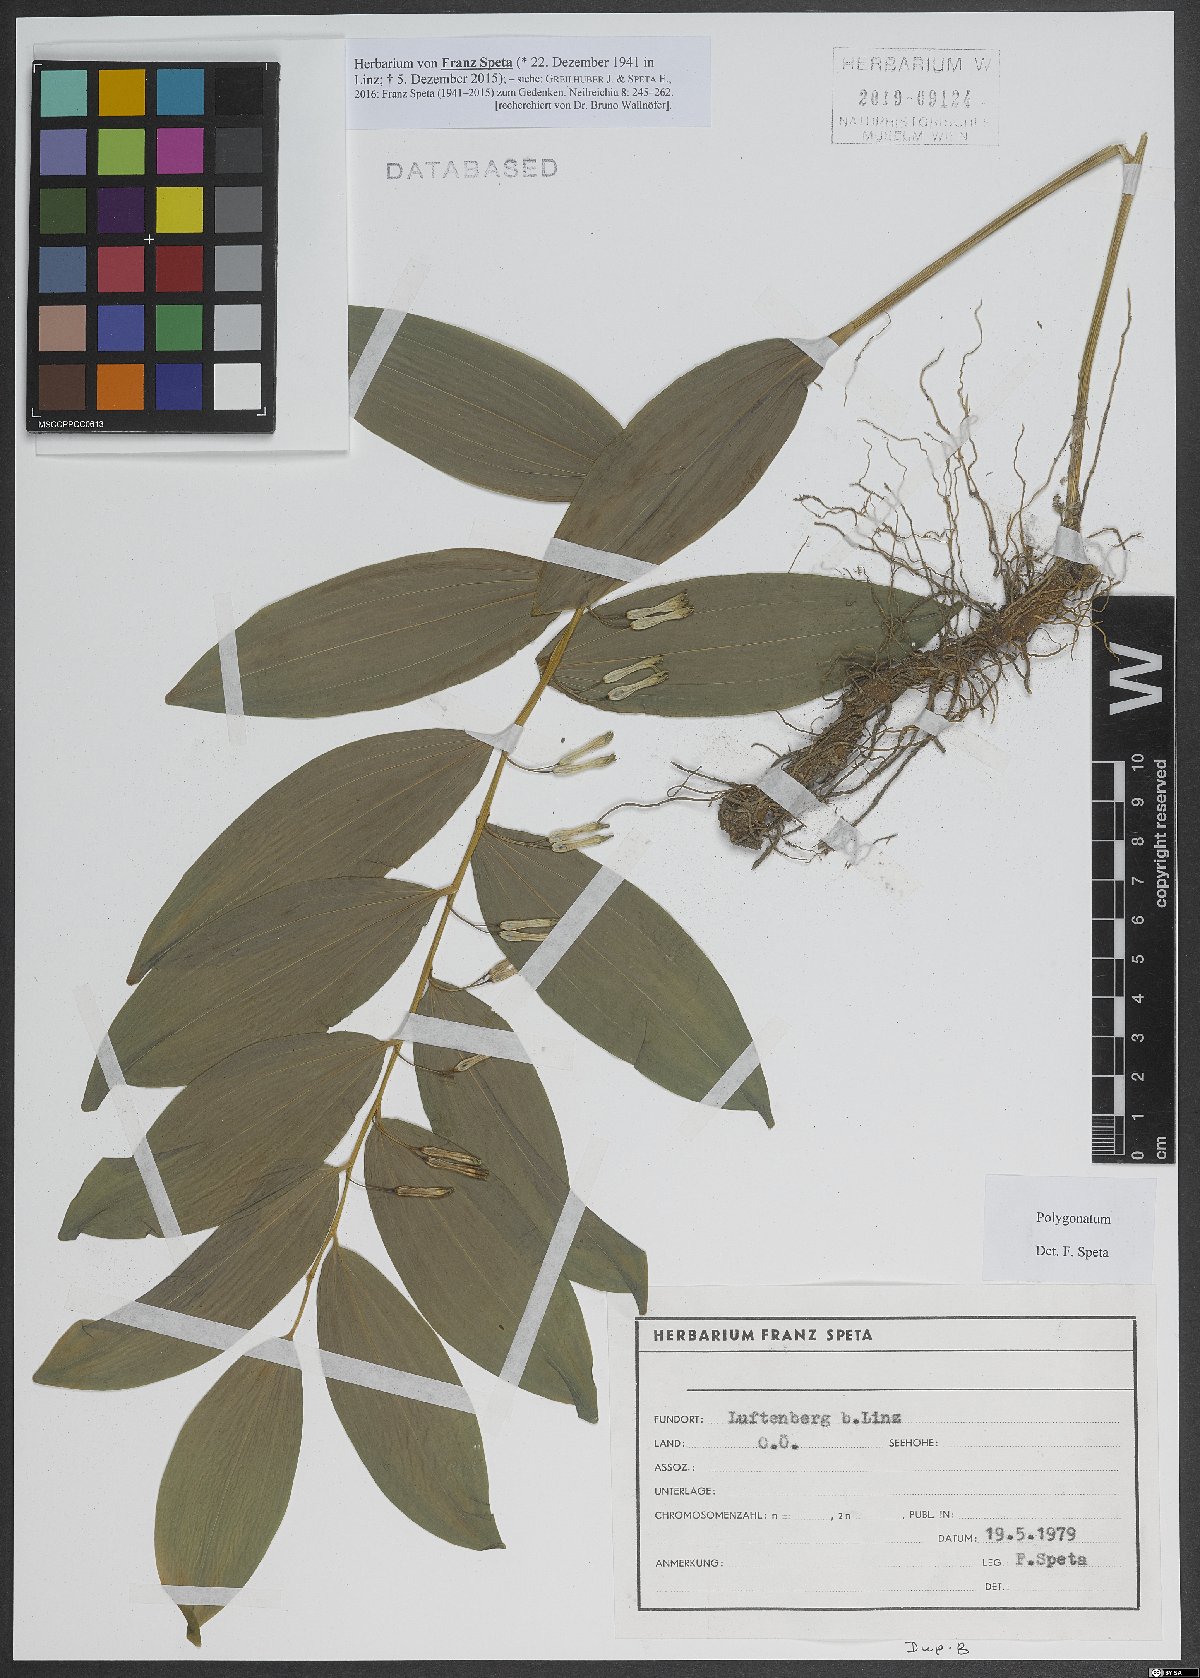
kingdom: Plantae
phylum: Tracheophyta
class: Liliopsida
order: Asparagales
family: Asparagaceae
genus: Polygonatum
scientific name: Polygonatum
